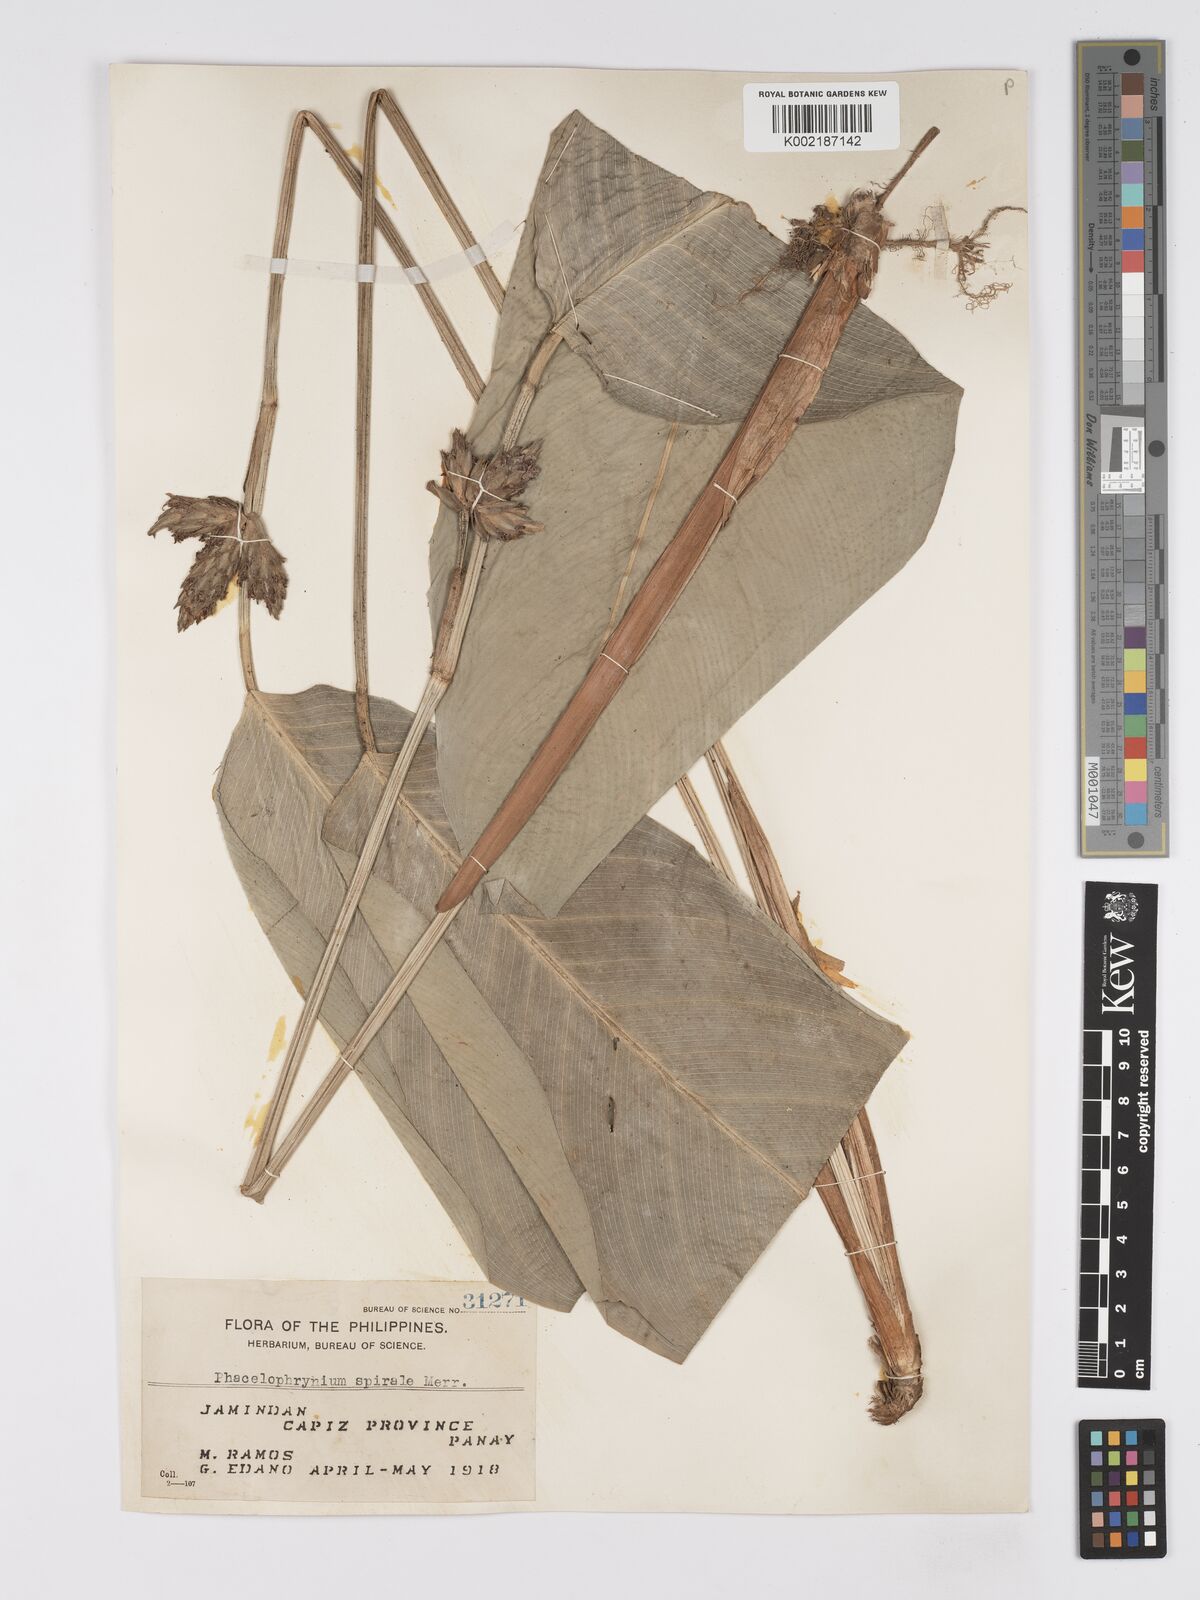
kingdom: Plantae
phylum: Tracheophyta
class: Liliopsida
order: Zingiberales
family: Marantaceae
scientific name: Marantaceae
